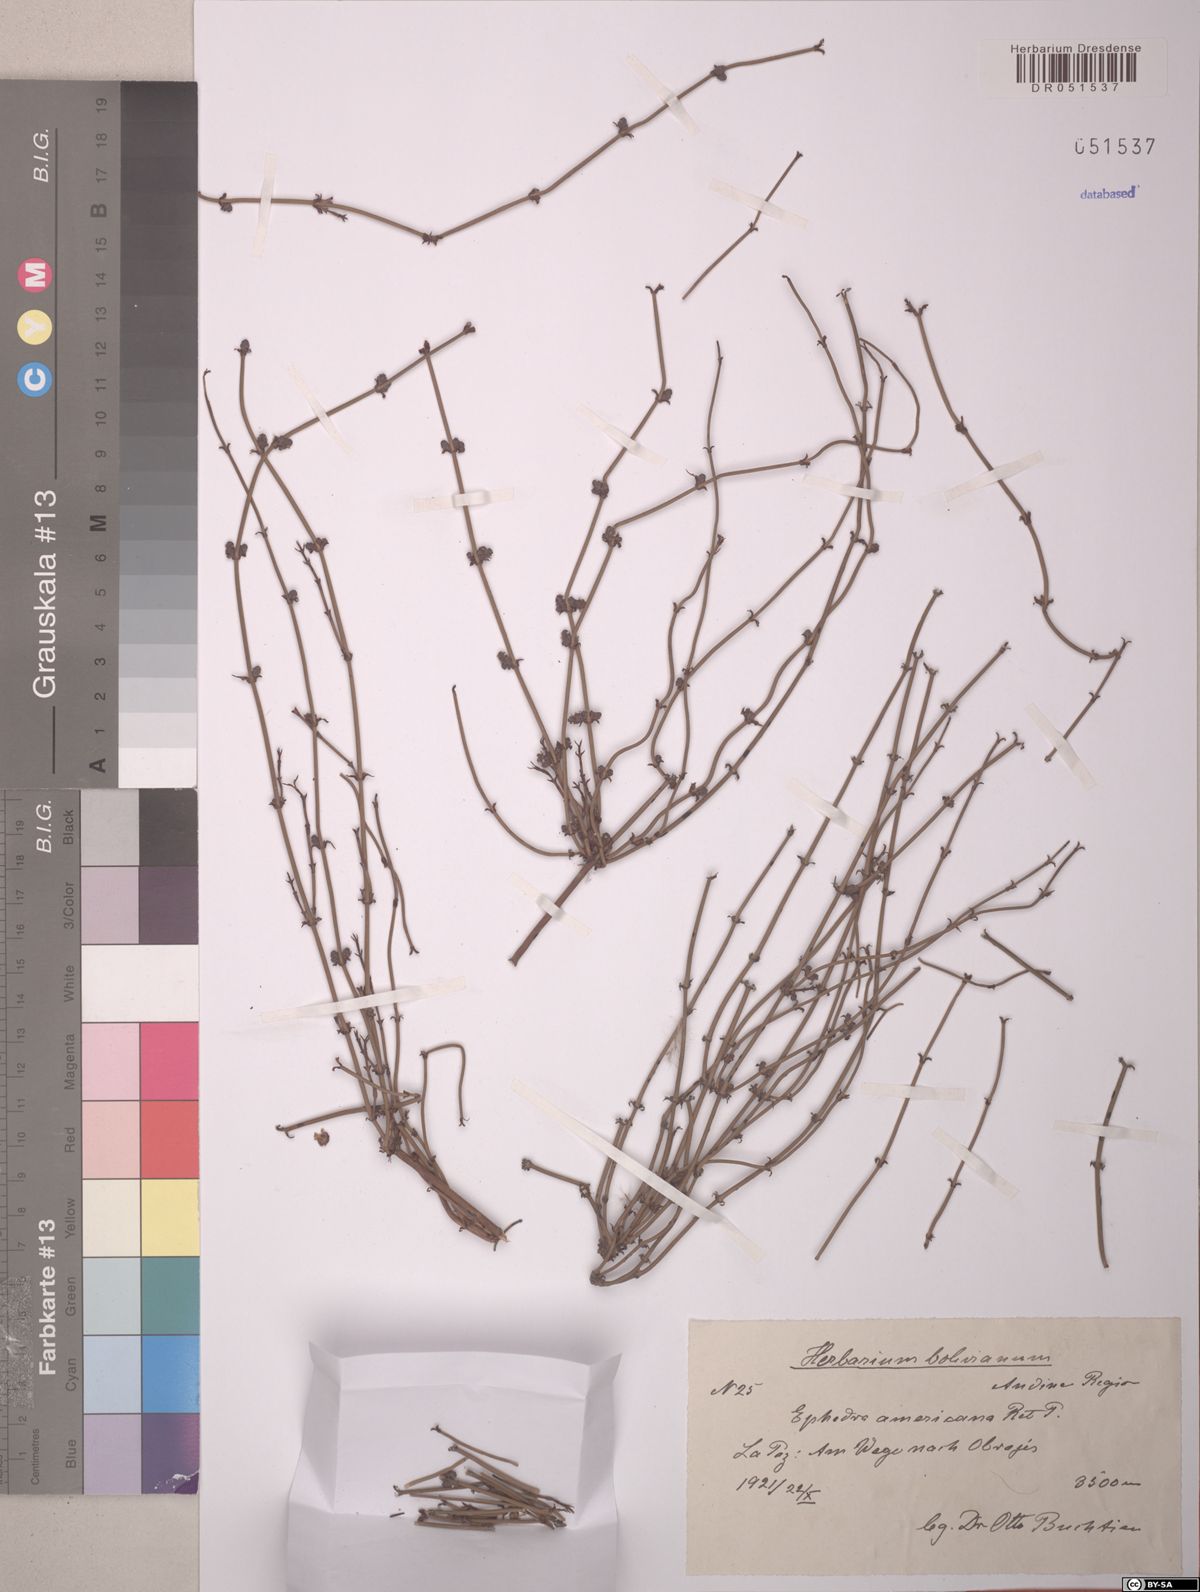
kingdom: Plantae
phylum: Tracheophyta
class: Gnetopsida
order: Ephedrales
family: Ephedraceae
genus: Ephedra
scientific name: Ephedra americana
